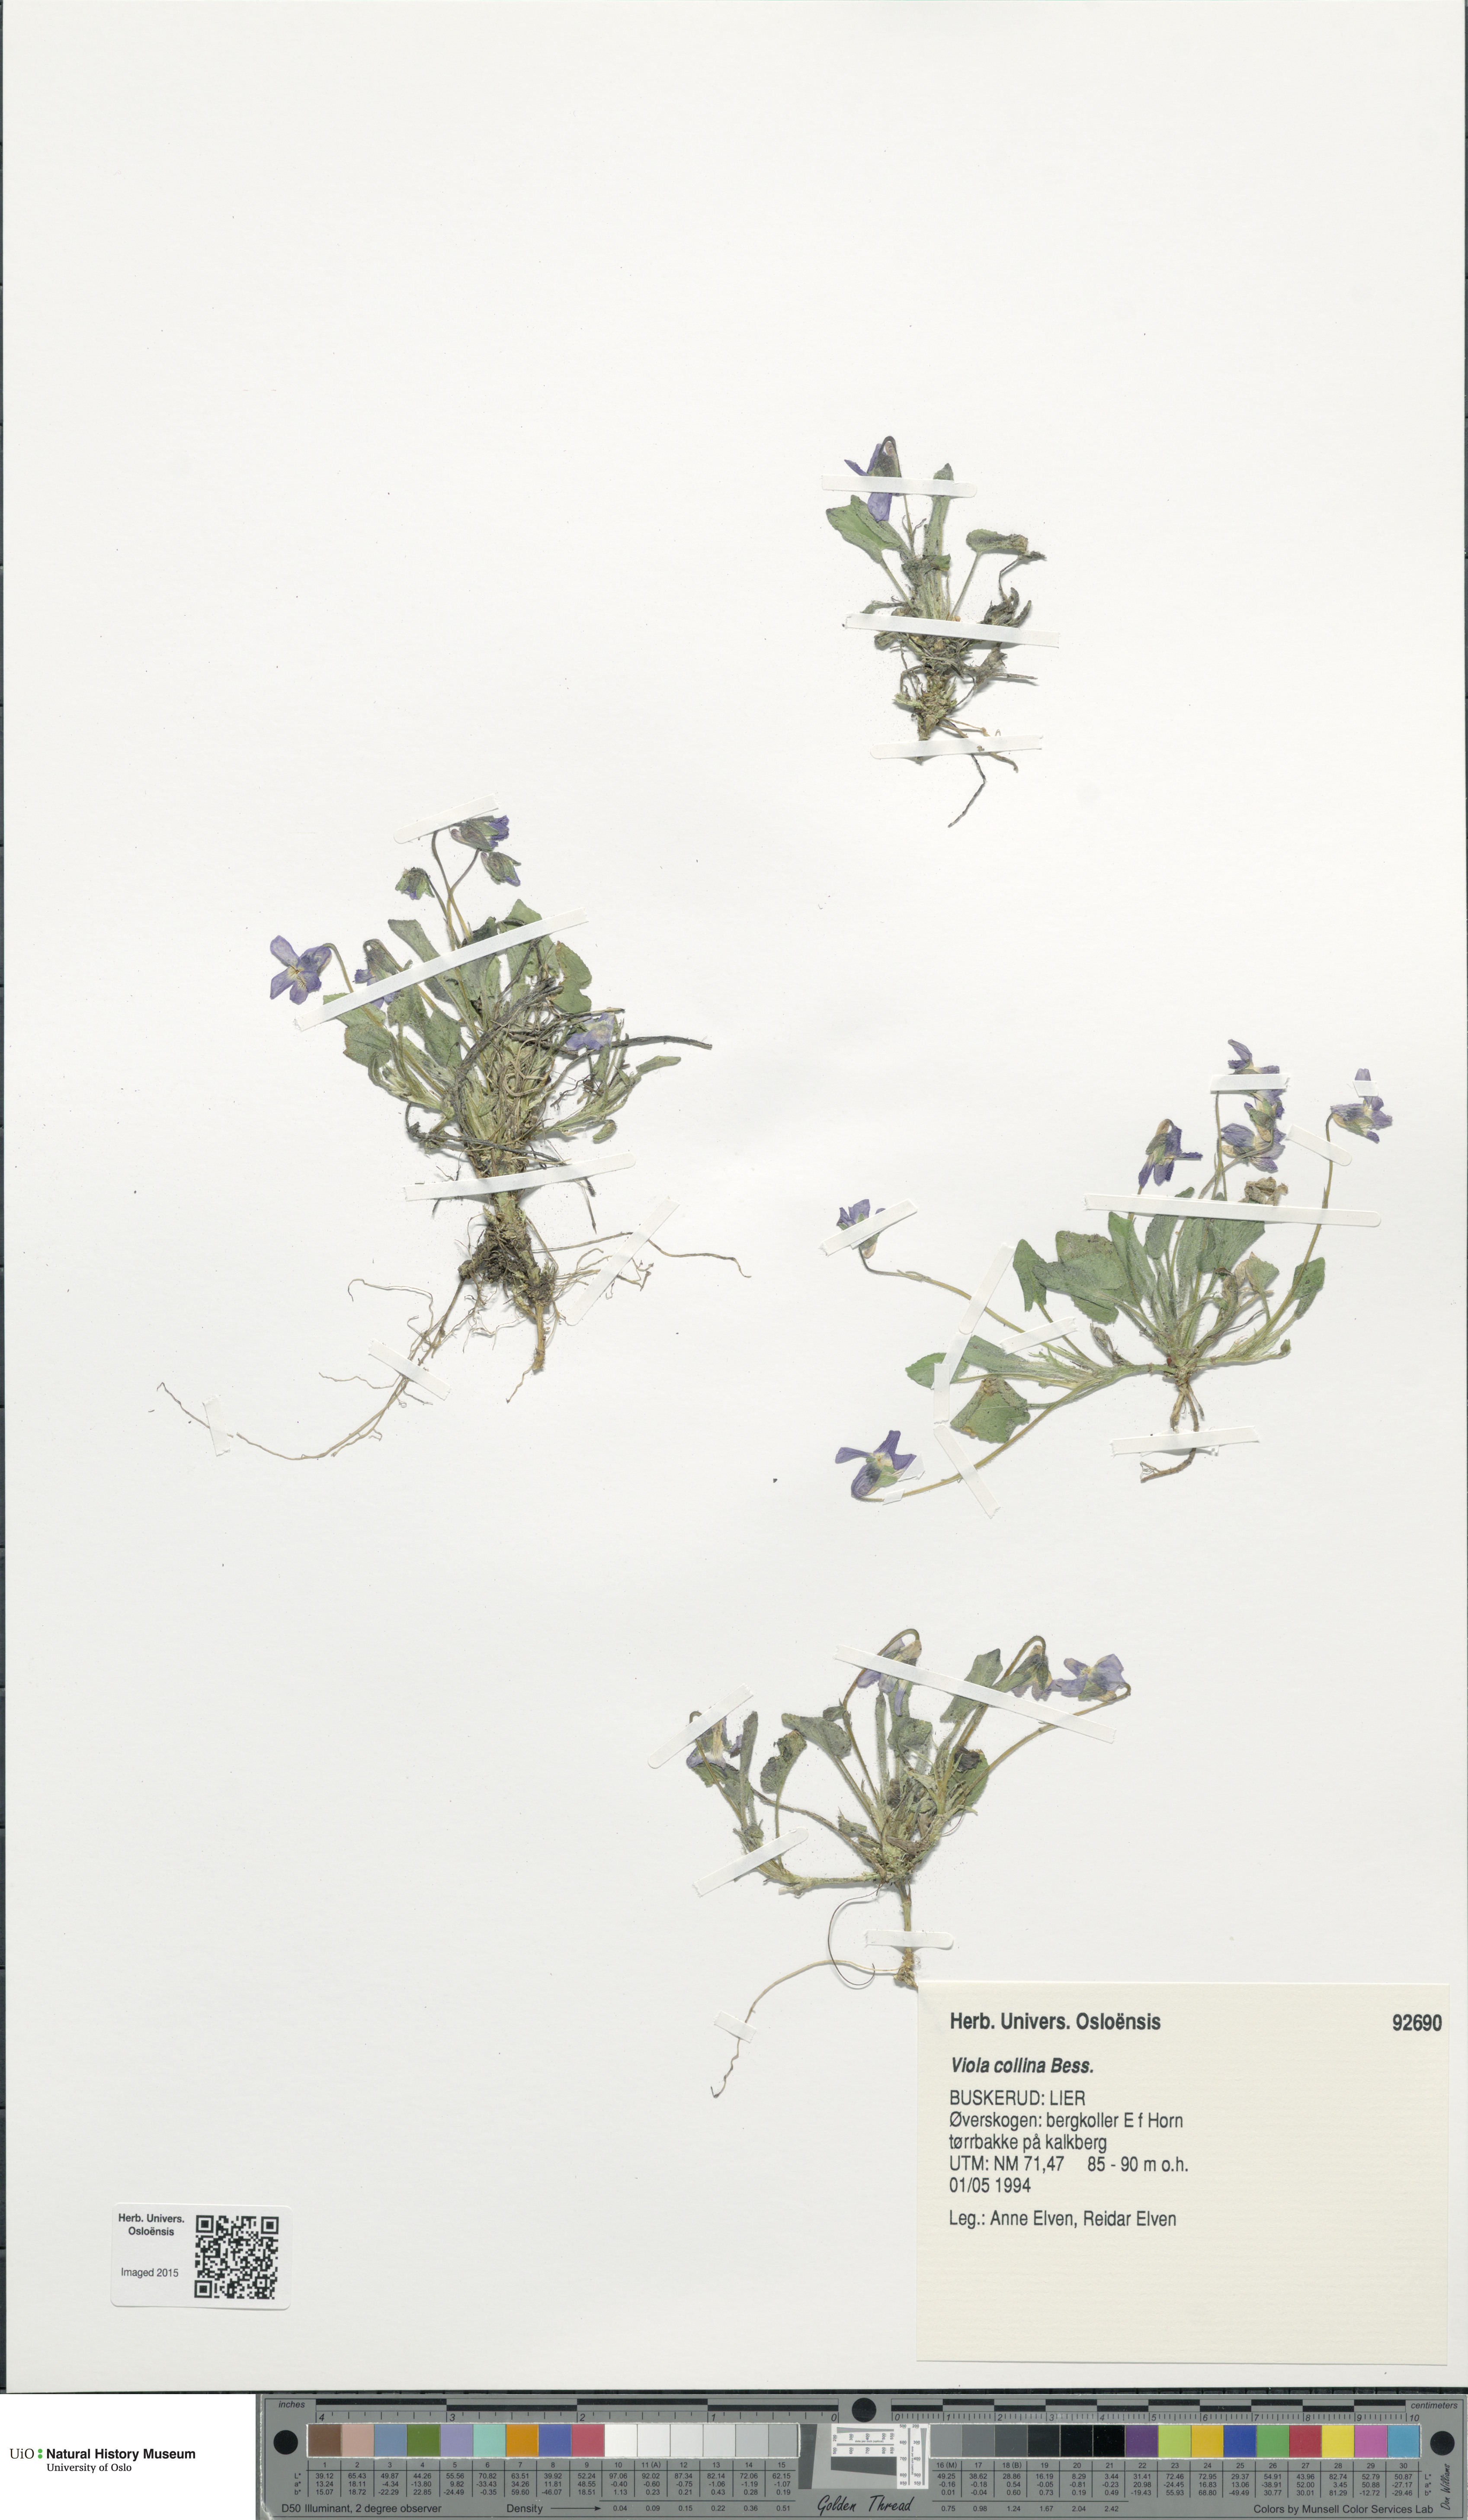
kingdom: Plantae
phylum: Tracheophyta
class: Magnoliopsida
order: Malpighiales
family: Violaceae
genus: Viola
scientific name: Viola collina
